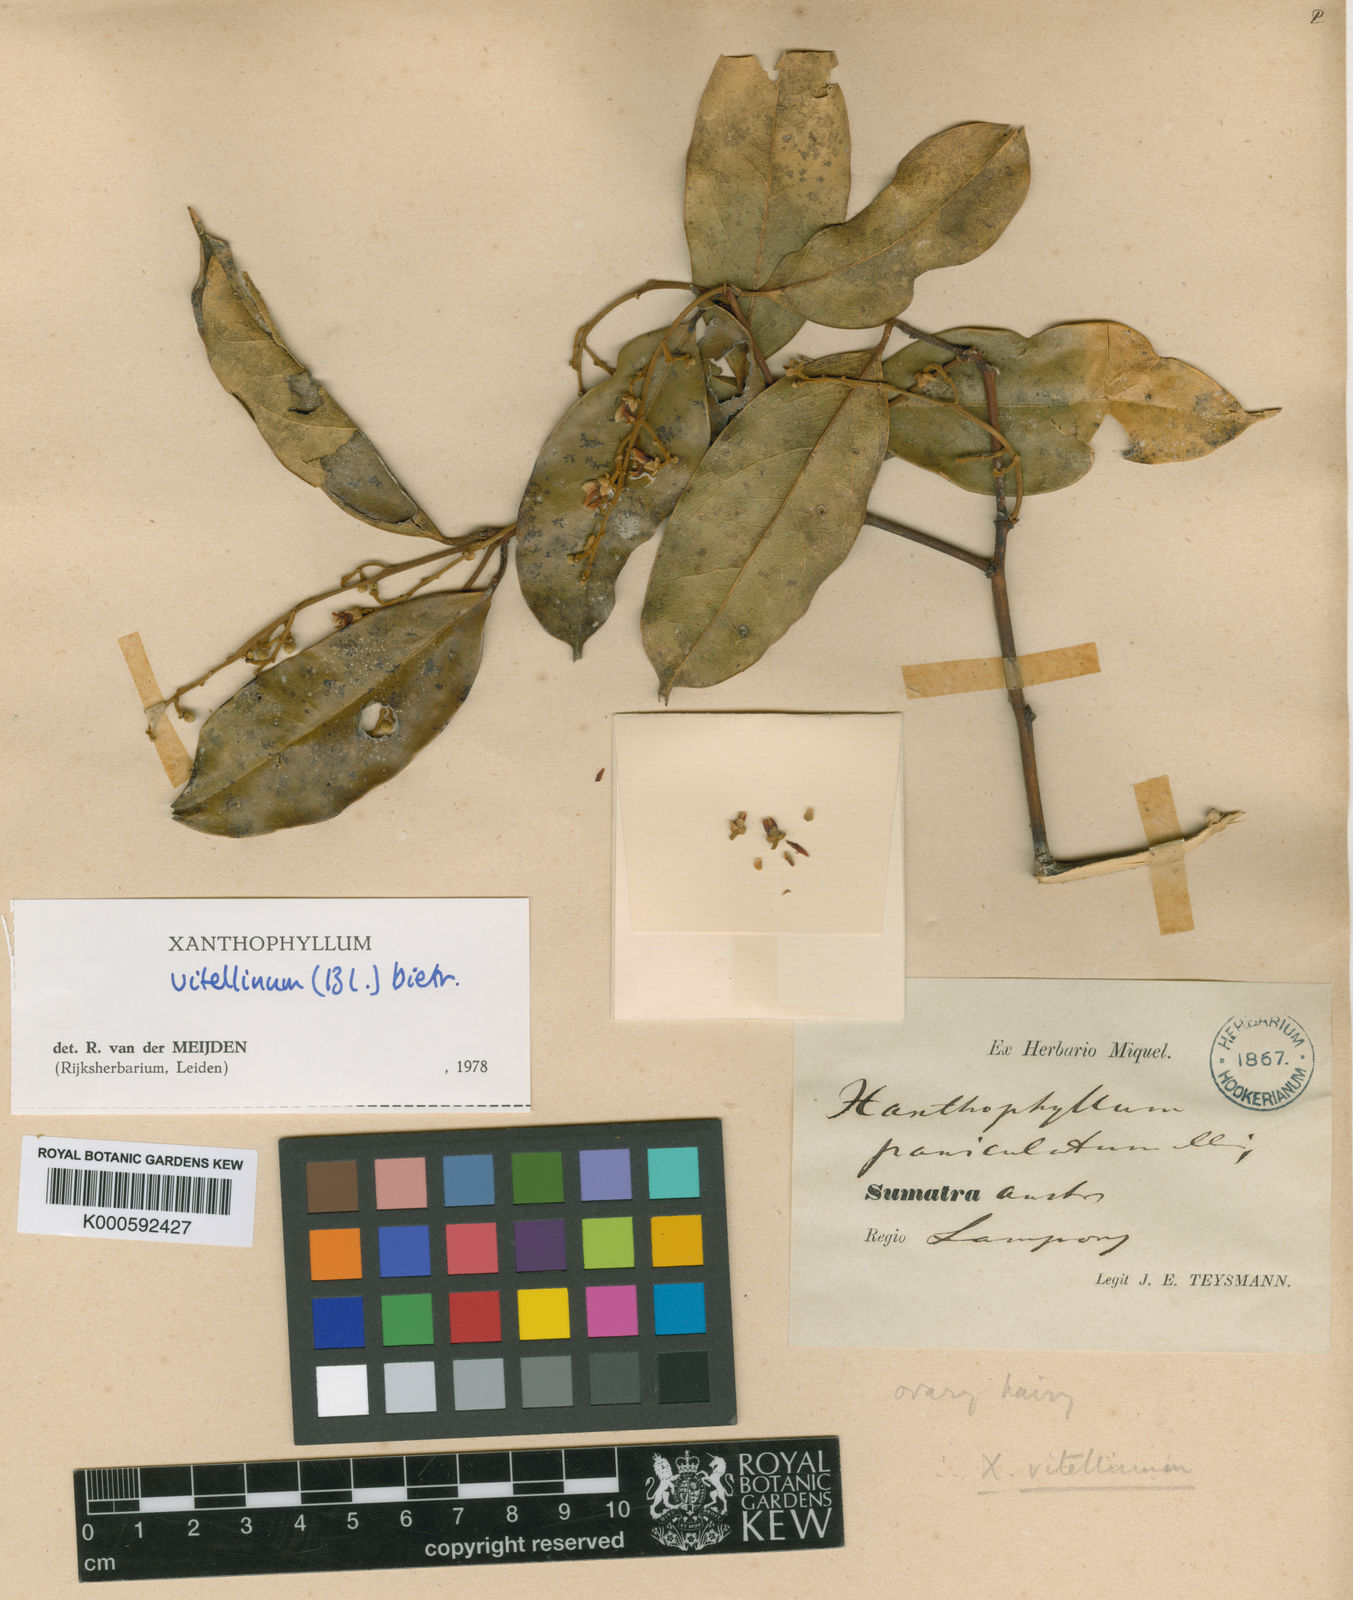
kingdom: Plantae
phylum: Tracheophyta
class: Magnoliopsida
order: Fabales
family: Polygalaceae
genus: Xanthophyllum
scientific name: Xanthophyllum vitellinum
